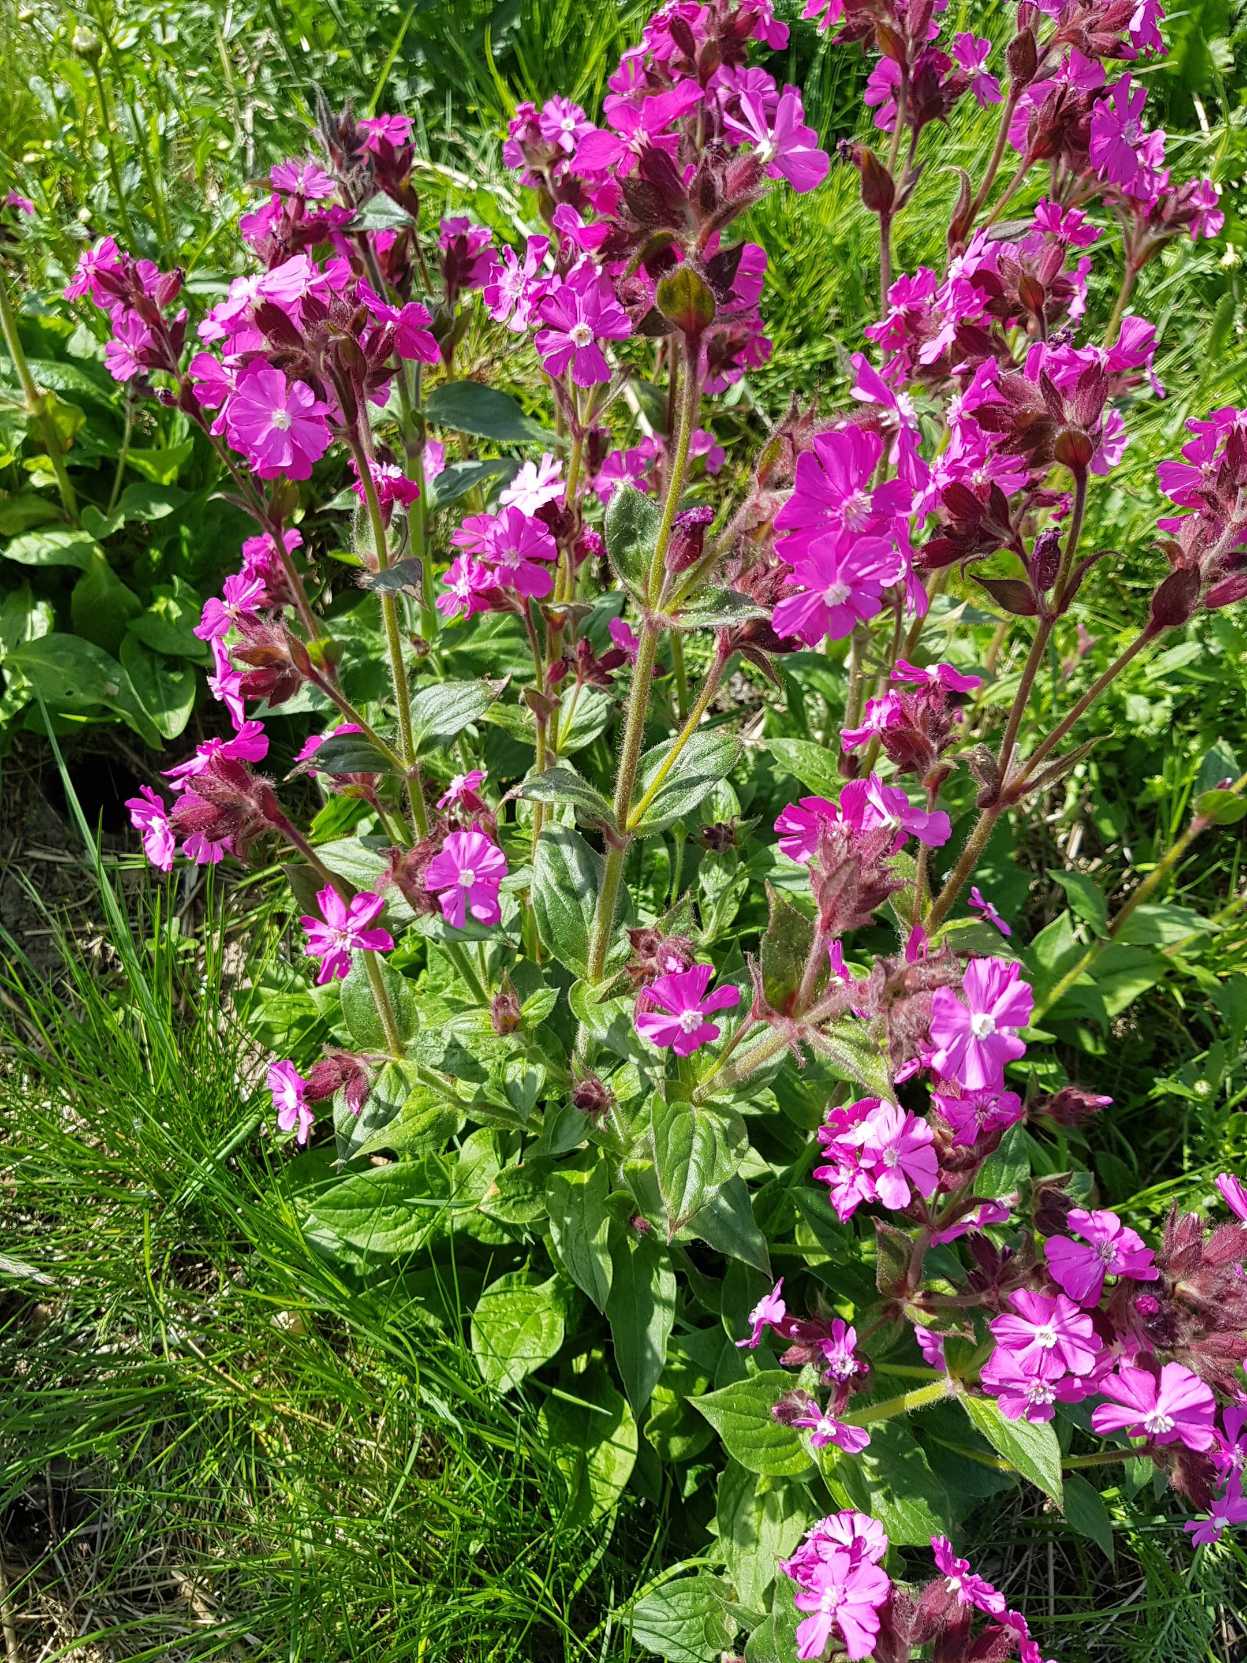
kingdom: Plantae
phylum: Tracheophyta
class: Magnoliopsida
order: Caryophyllales
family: Caryophyllaceae
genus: Silene
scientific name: Silene dioica
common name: Dagpragtstjerne
